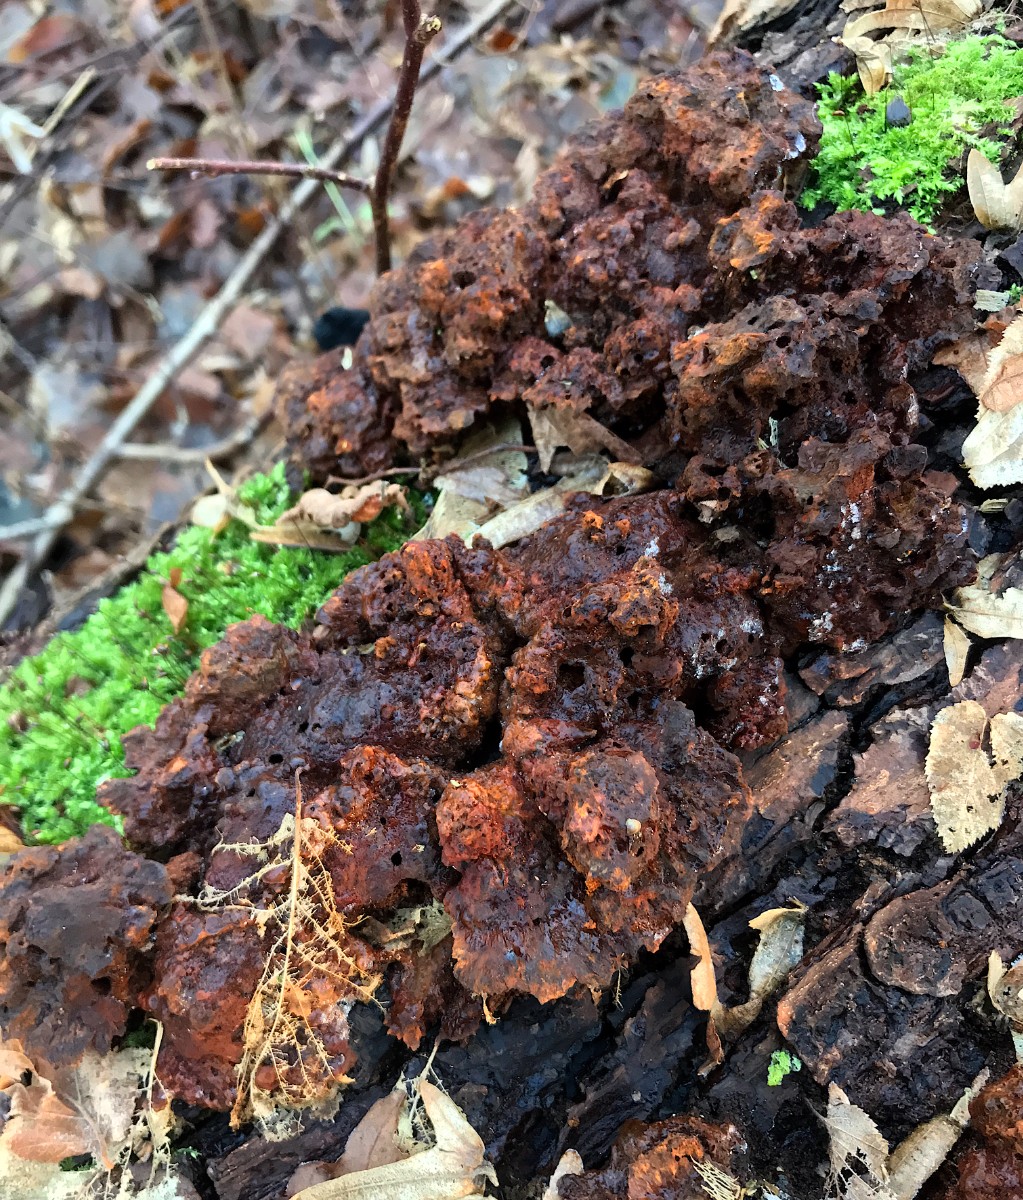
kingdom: Fungi
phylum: Basidiomycota
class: Agaricomycetes
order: Hymenochaetales
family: Hymenochaetaceae
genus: Pseudoinonotus
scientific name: Pseudoinonotus dryadeus
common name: ege-spejlporesvamp
